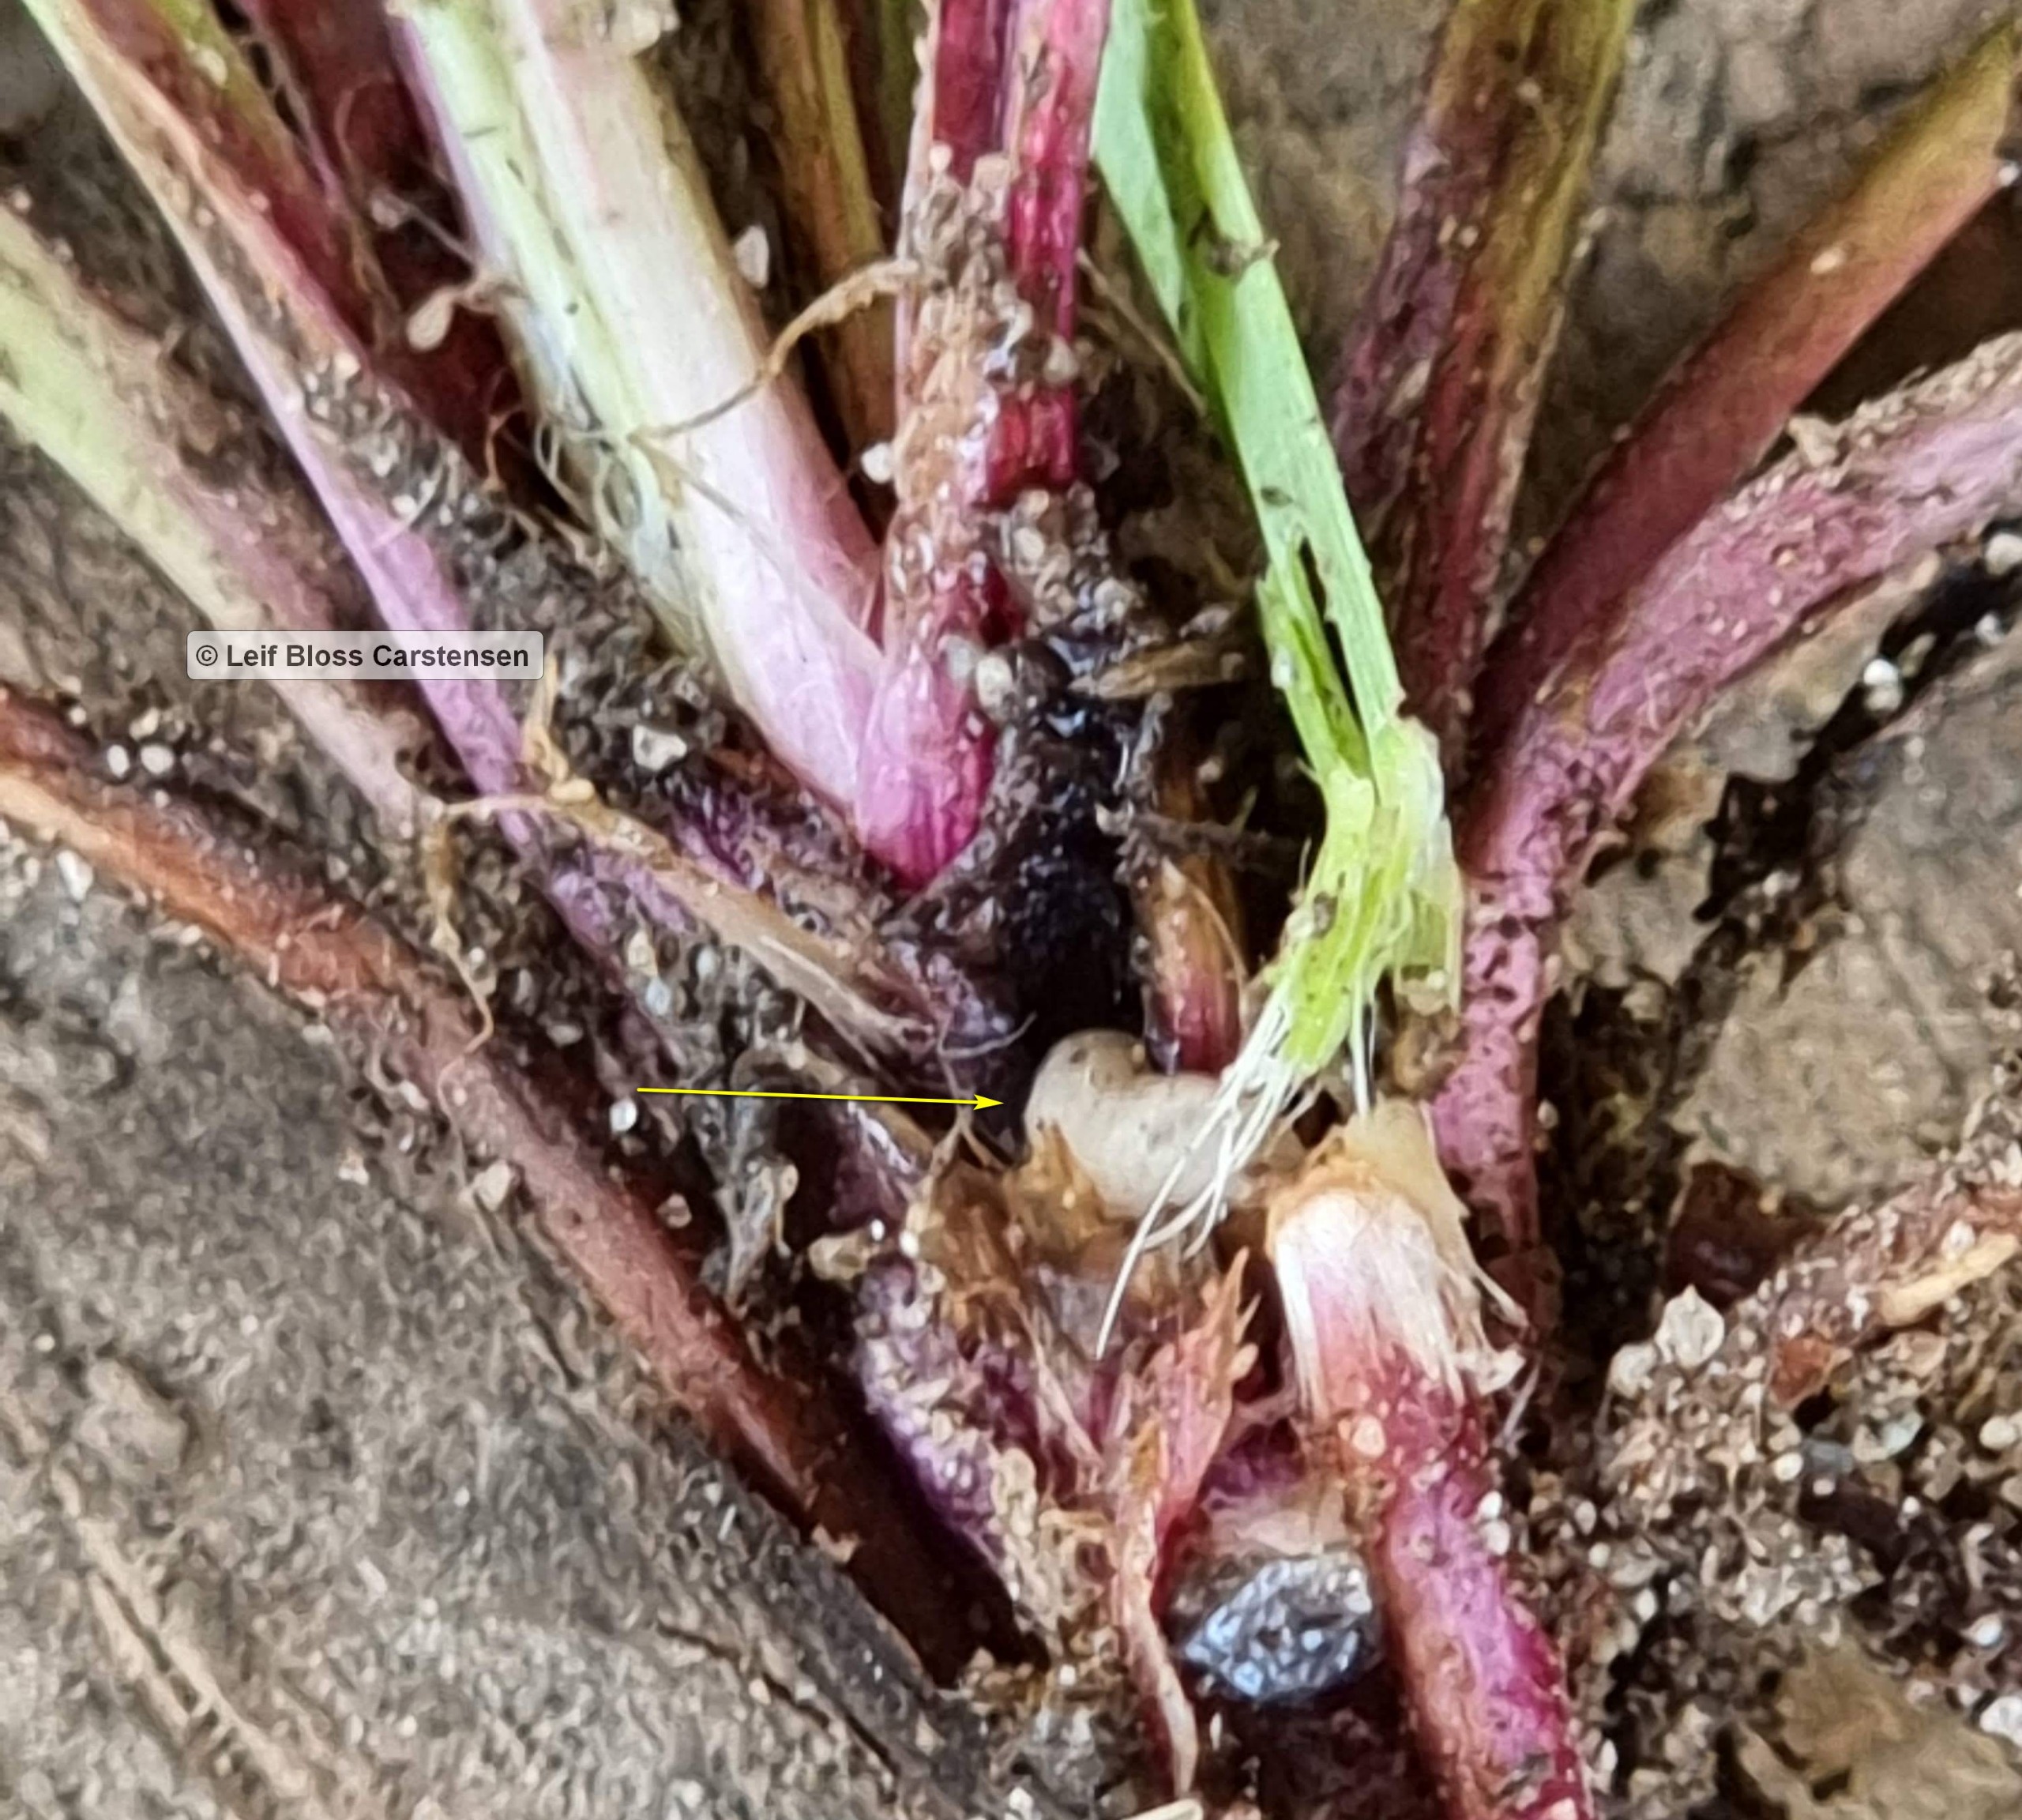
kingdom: Animalia
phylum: Arthropoda
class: Insecta
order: Diptera
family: Syrphidae
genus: Cheilosia
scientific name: Cheilosia lasiopa
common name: Vejbred-urtesvirreflue
